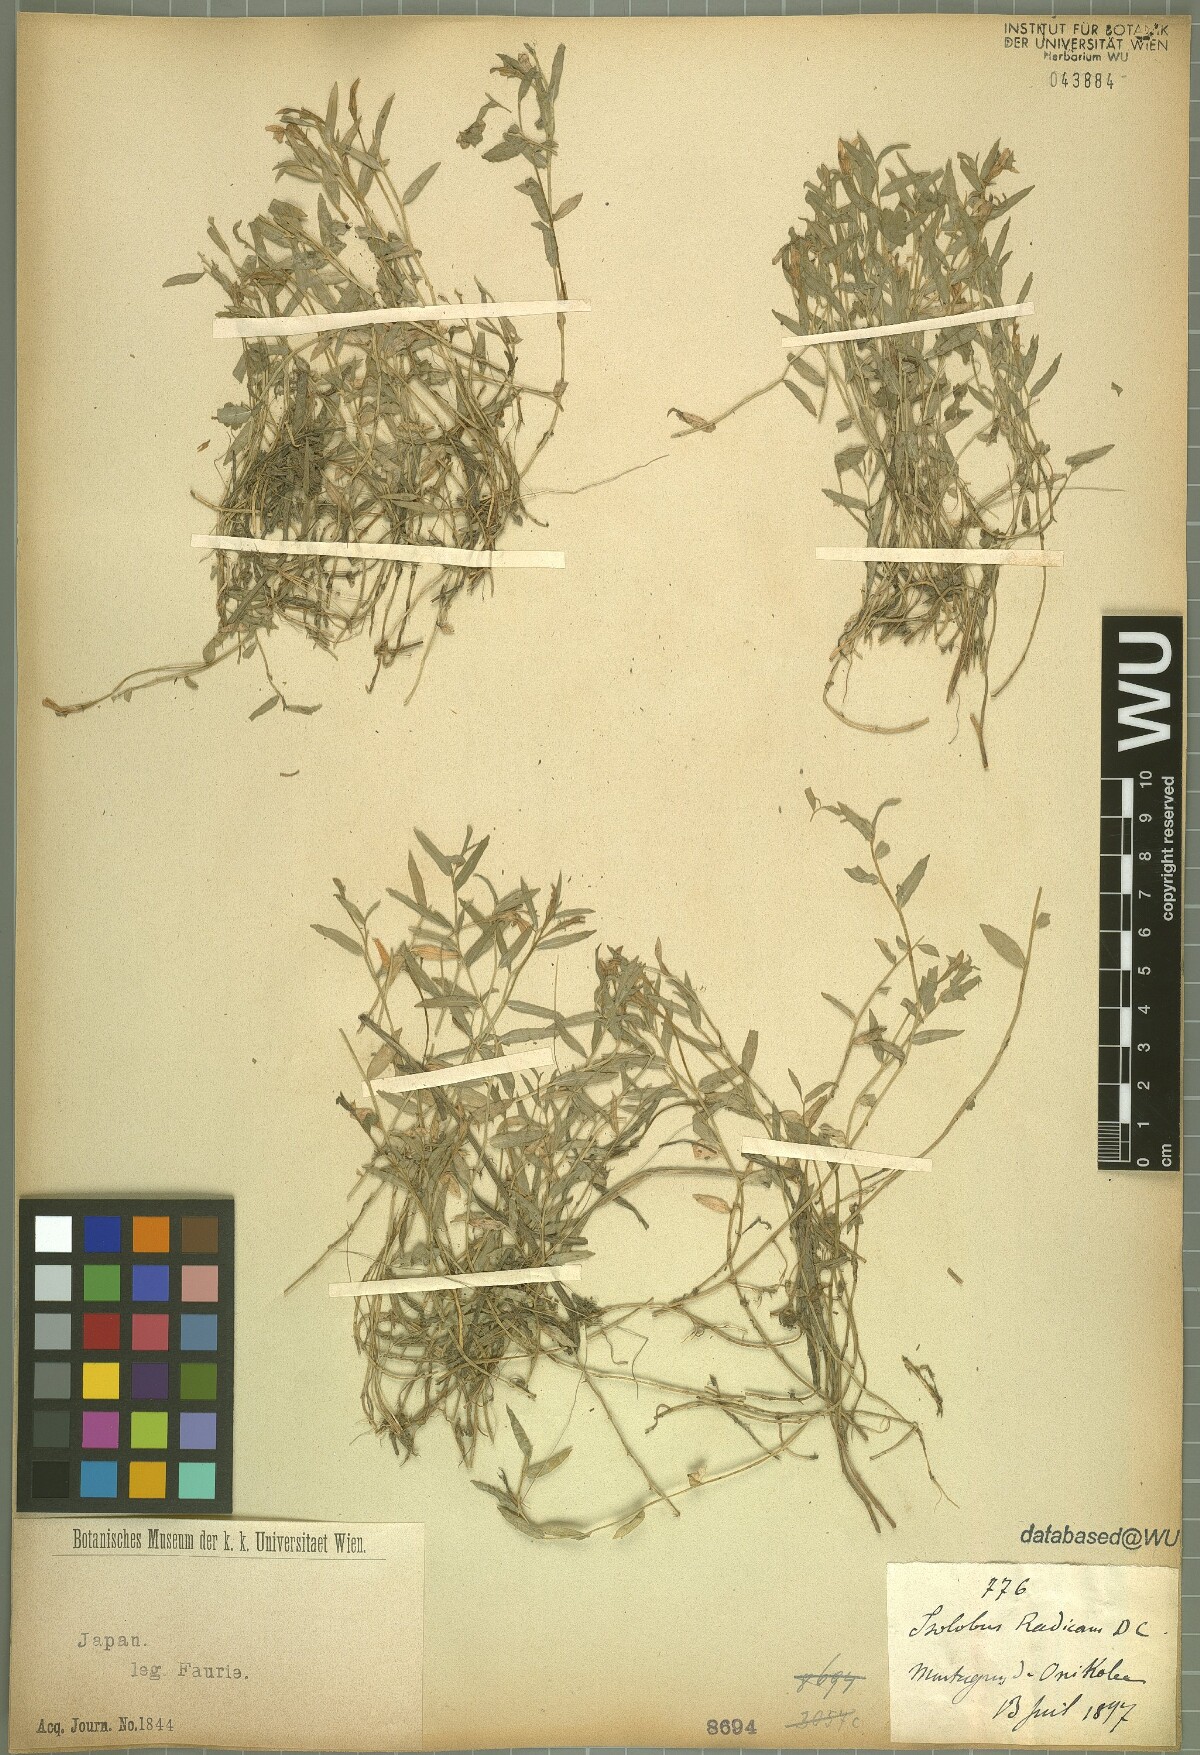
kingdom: Plantae
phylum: Tracheophyta
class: Magnoliopsida
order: Asterales
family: Campanulaceae
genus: Lobelia
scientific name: Lobelia chinensis
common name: Chinese lobelia
